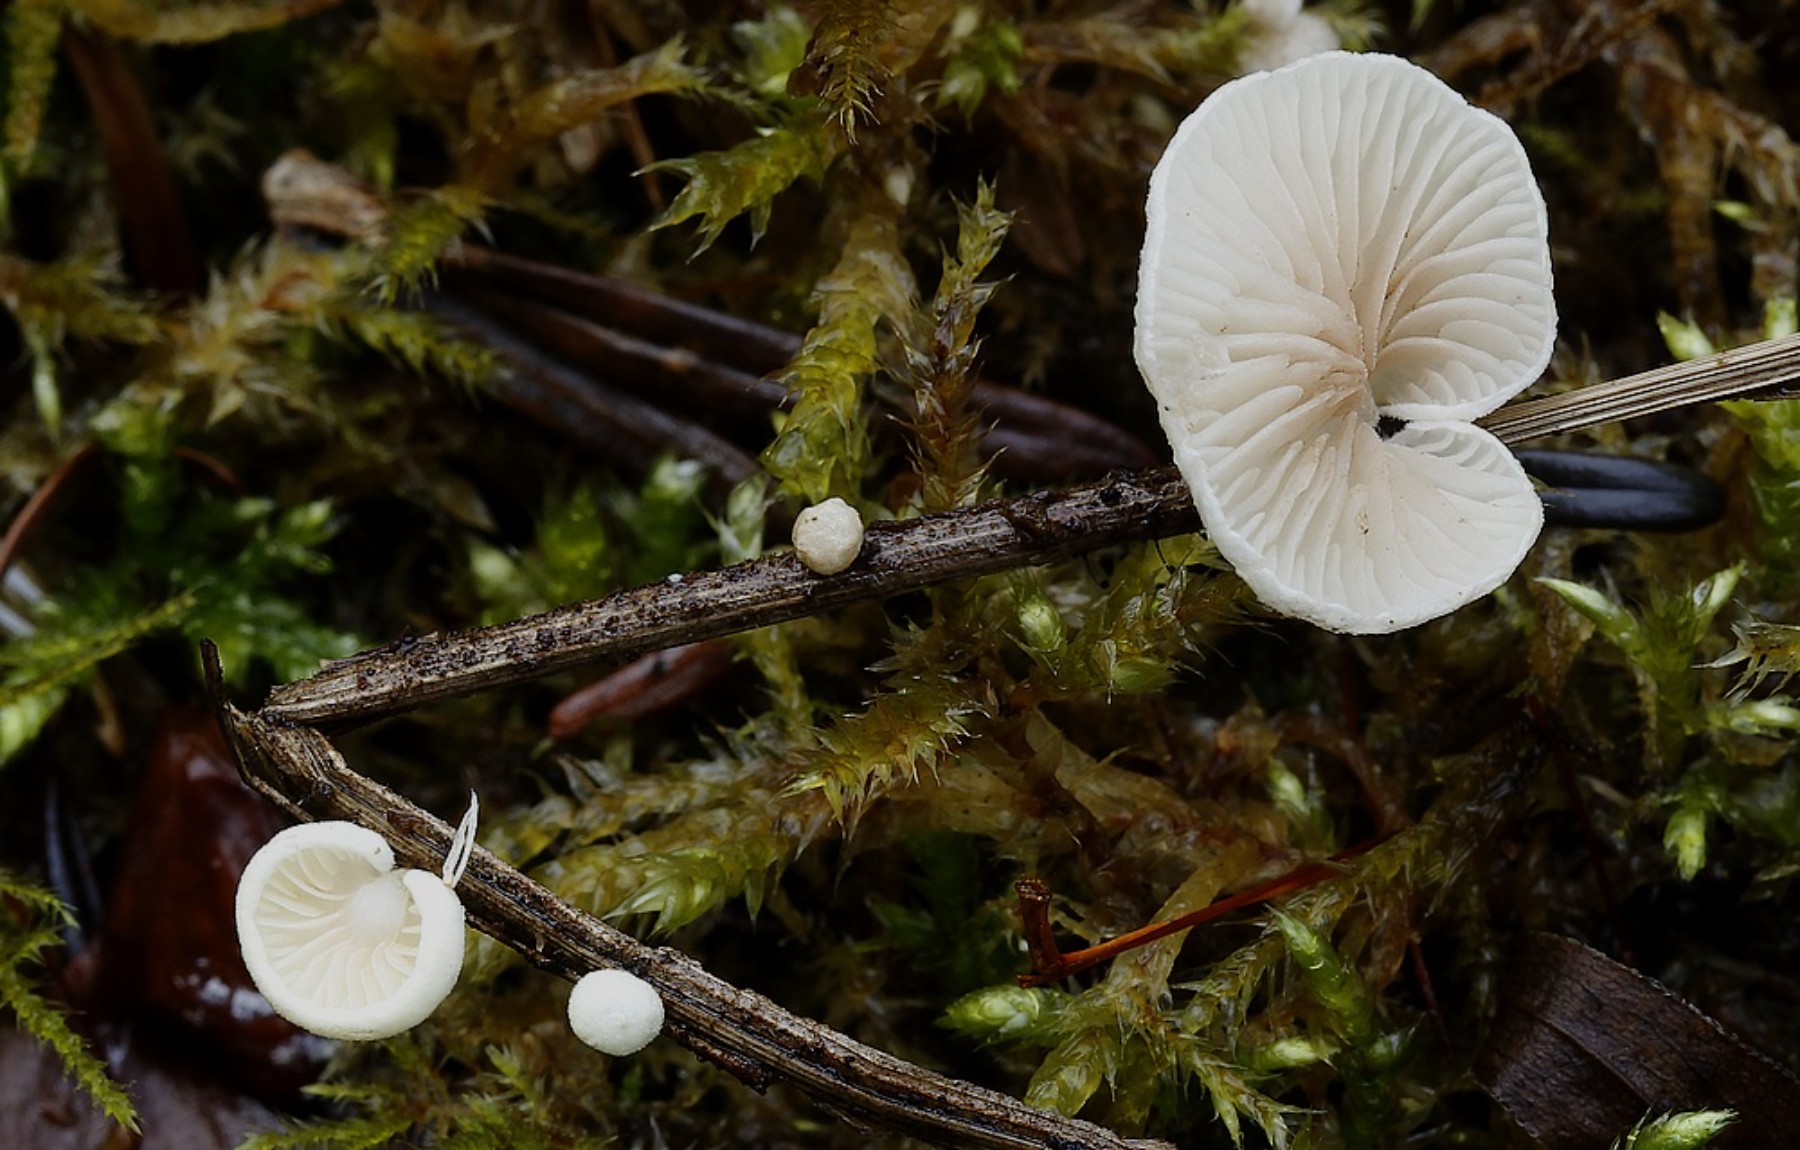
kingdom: Fungi
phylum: Basidiomycota
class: Agaricomycetes
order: Agaricales
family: Crepidotaceae
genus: Crepidotus
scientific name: Crepidotus luteolus
